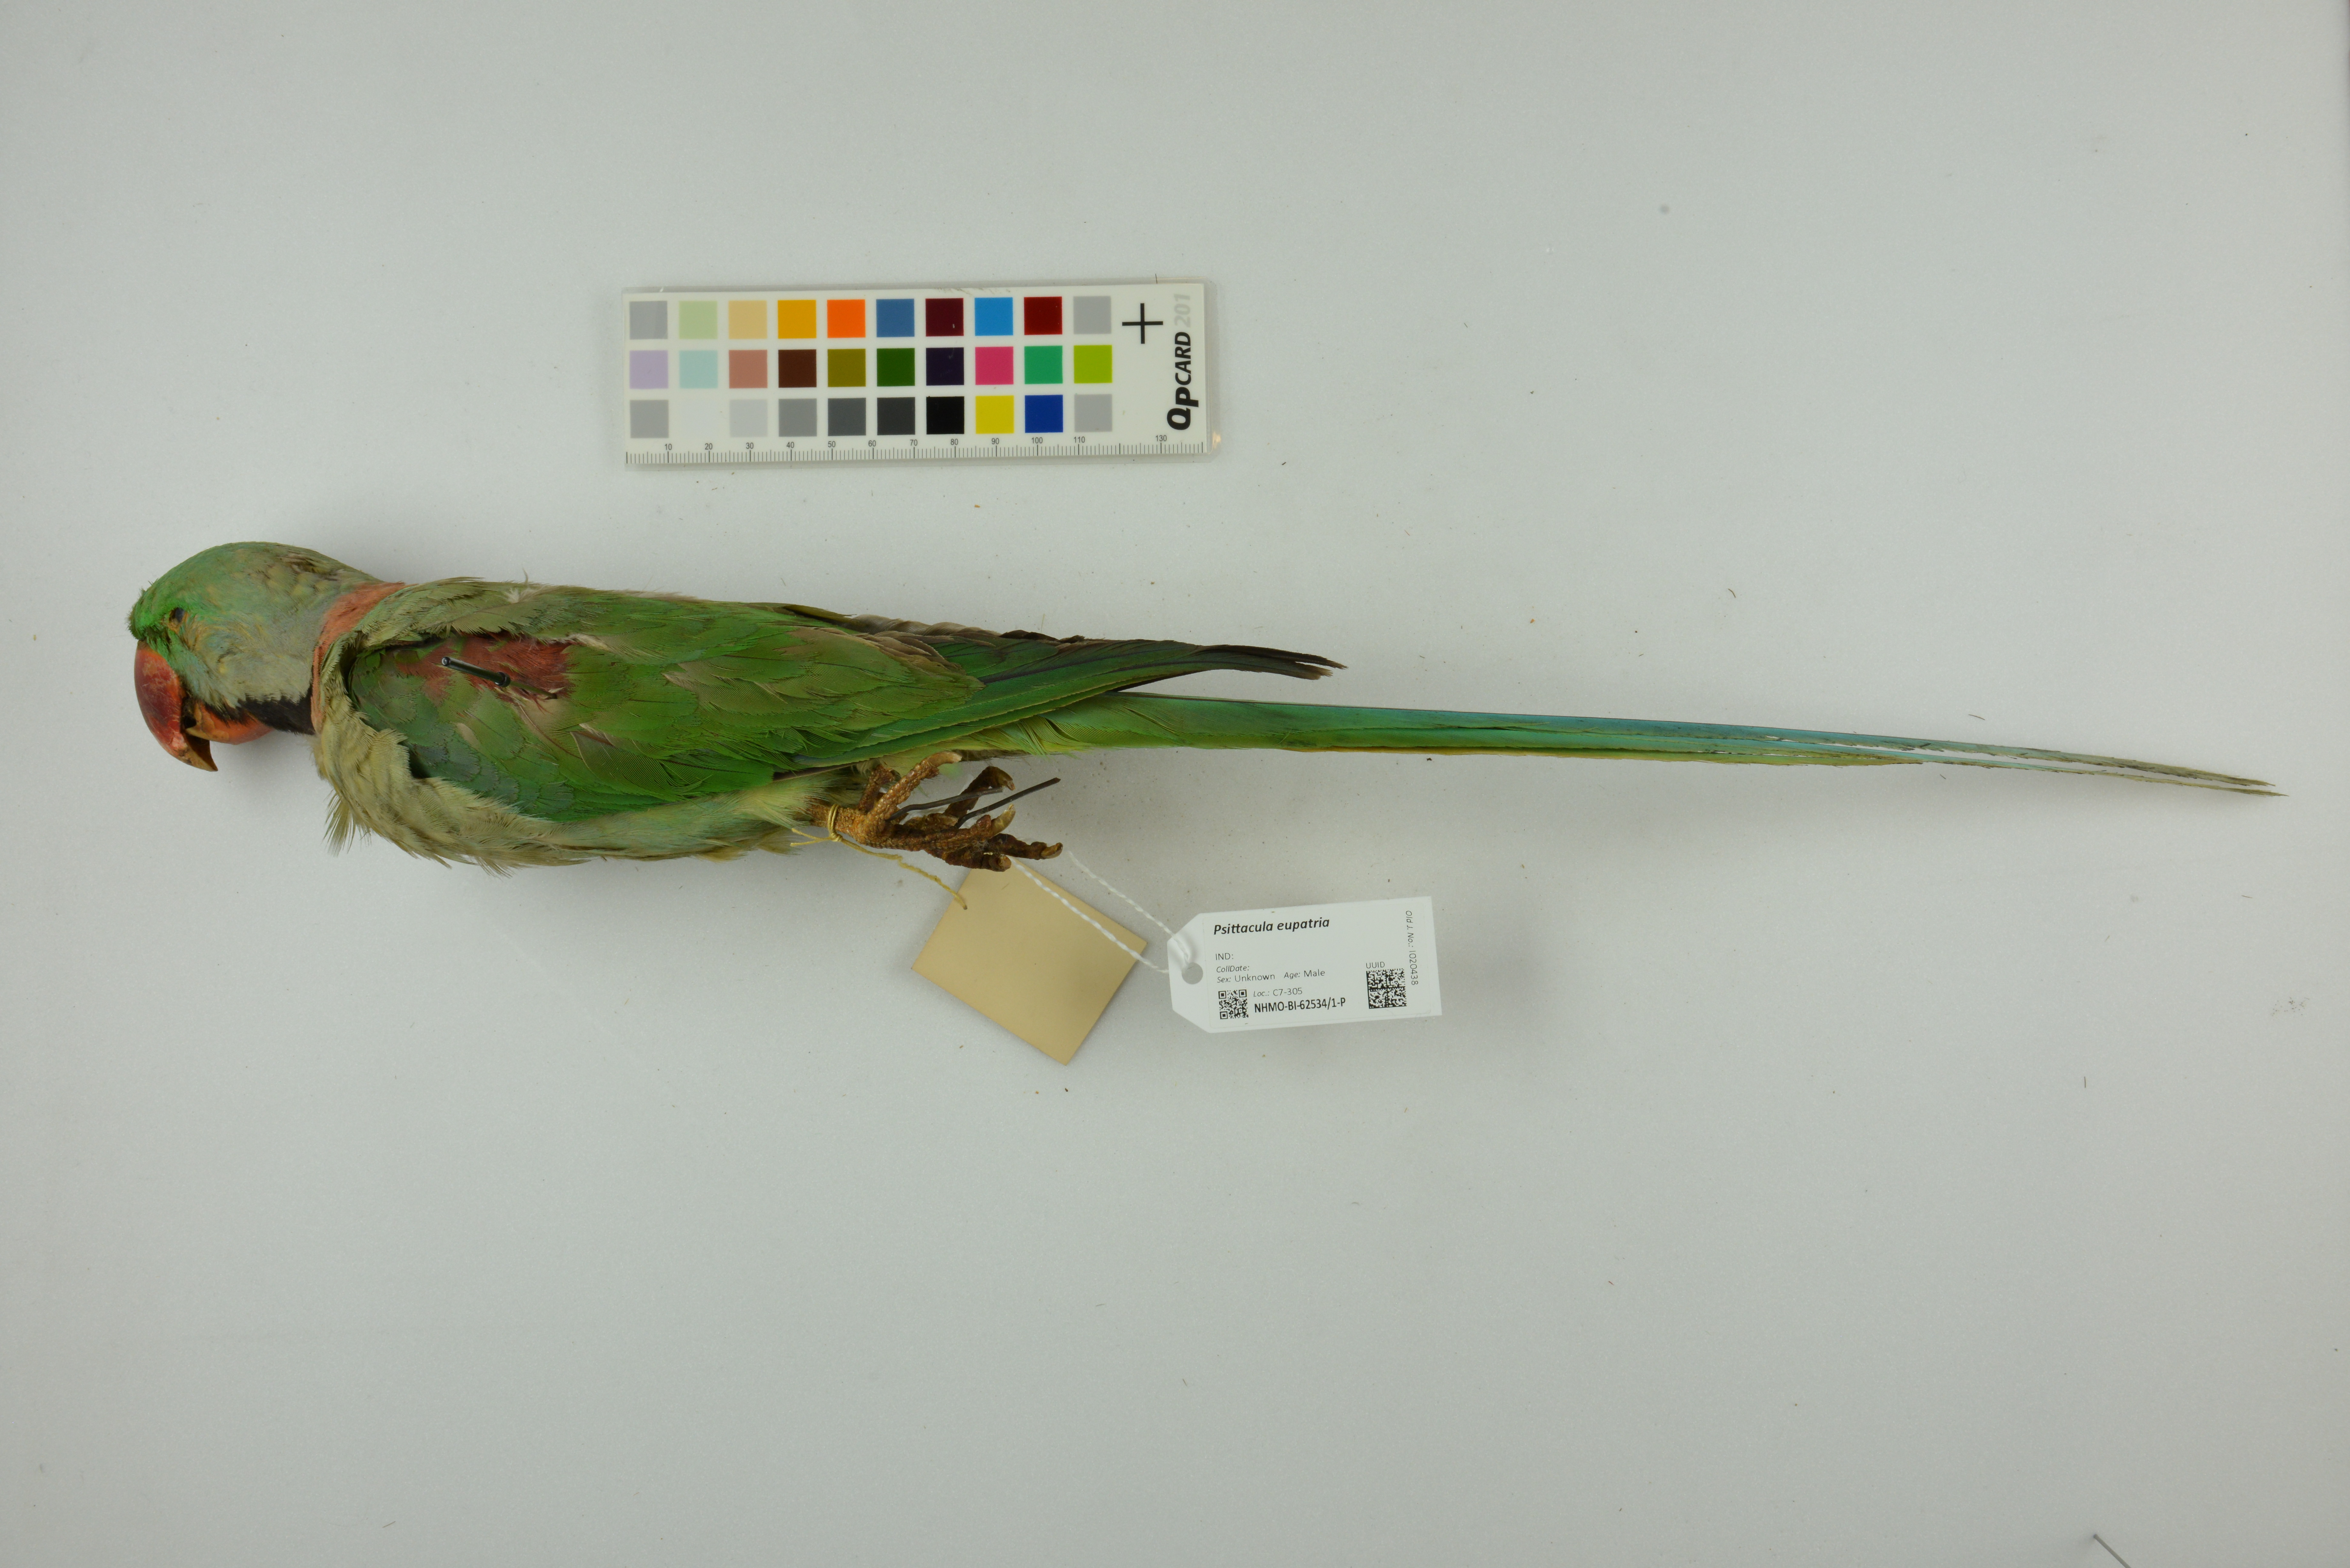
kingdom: Animalia
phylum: Chordata
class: Aves
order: Psittaciformes
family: Psittacidae
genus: Psittacula
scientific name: Psittacula eupatria
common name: Alexandrine parakeet
